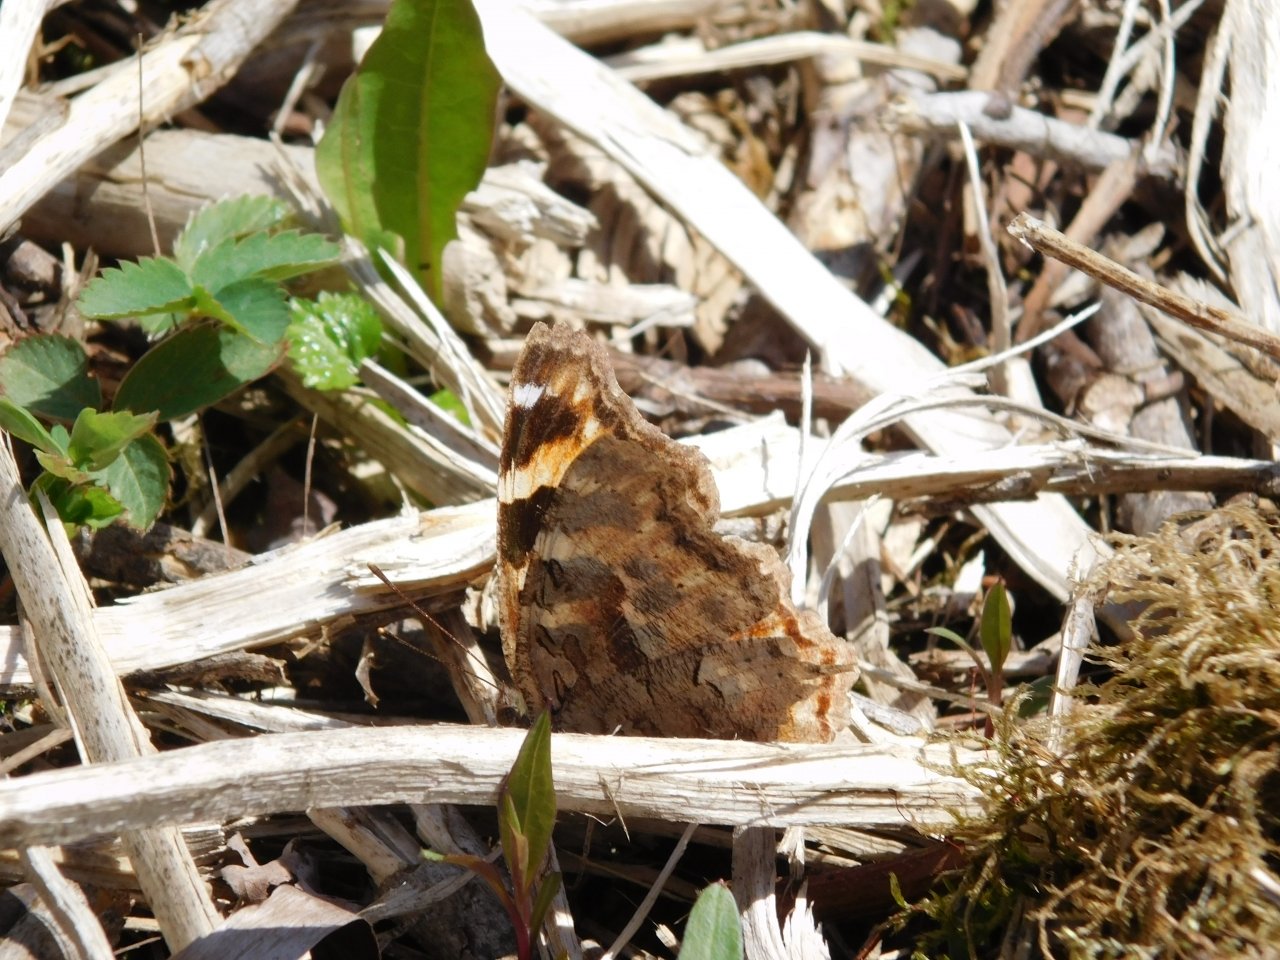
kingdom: Animalia
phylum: Arthropoda
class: Insecta
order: Lepidoptera
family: Nymphalidae
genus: Polygonia
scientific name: Polygonia vaualbum
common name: Compton Tortoiseshell
